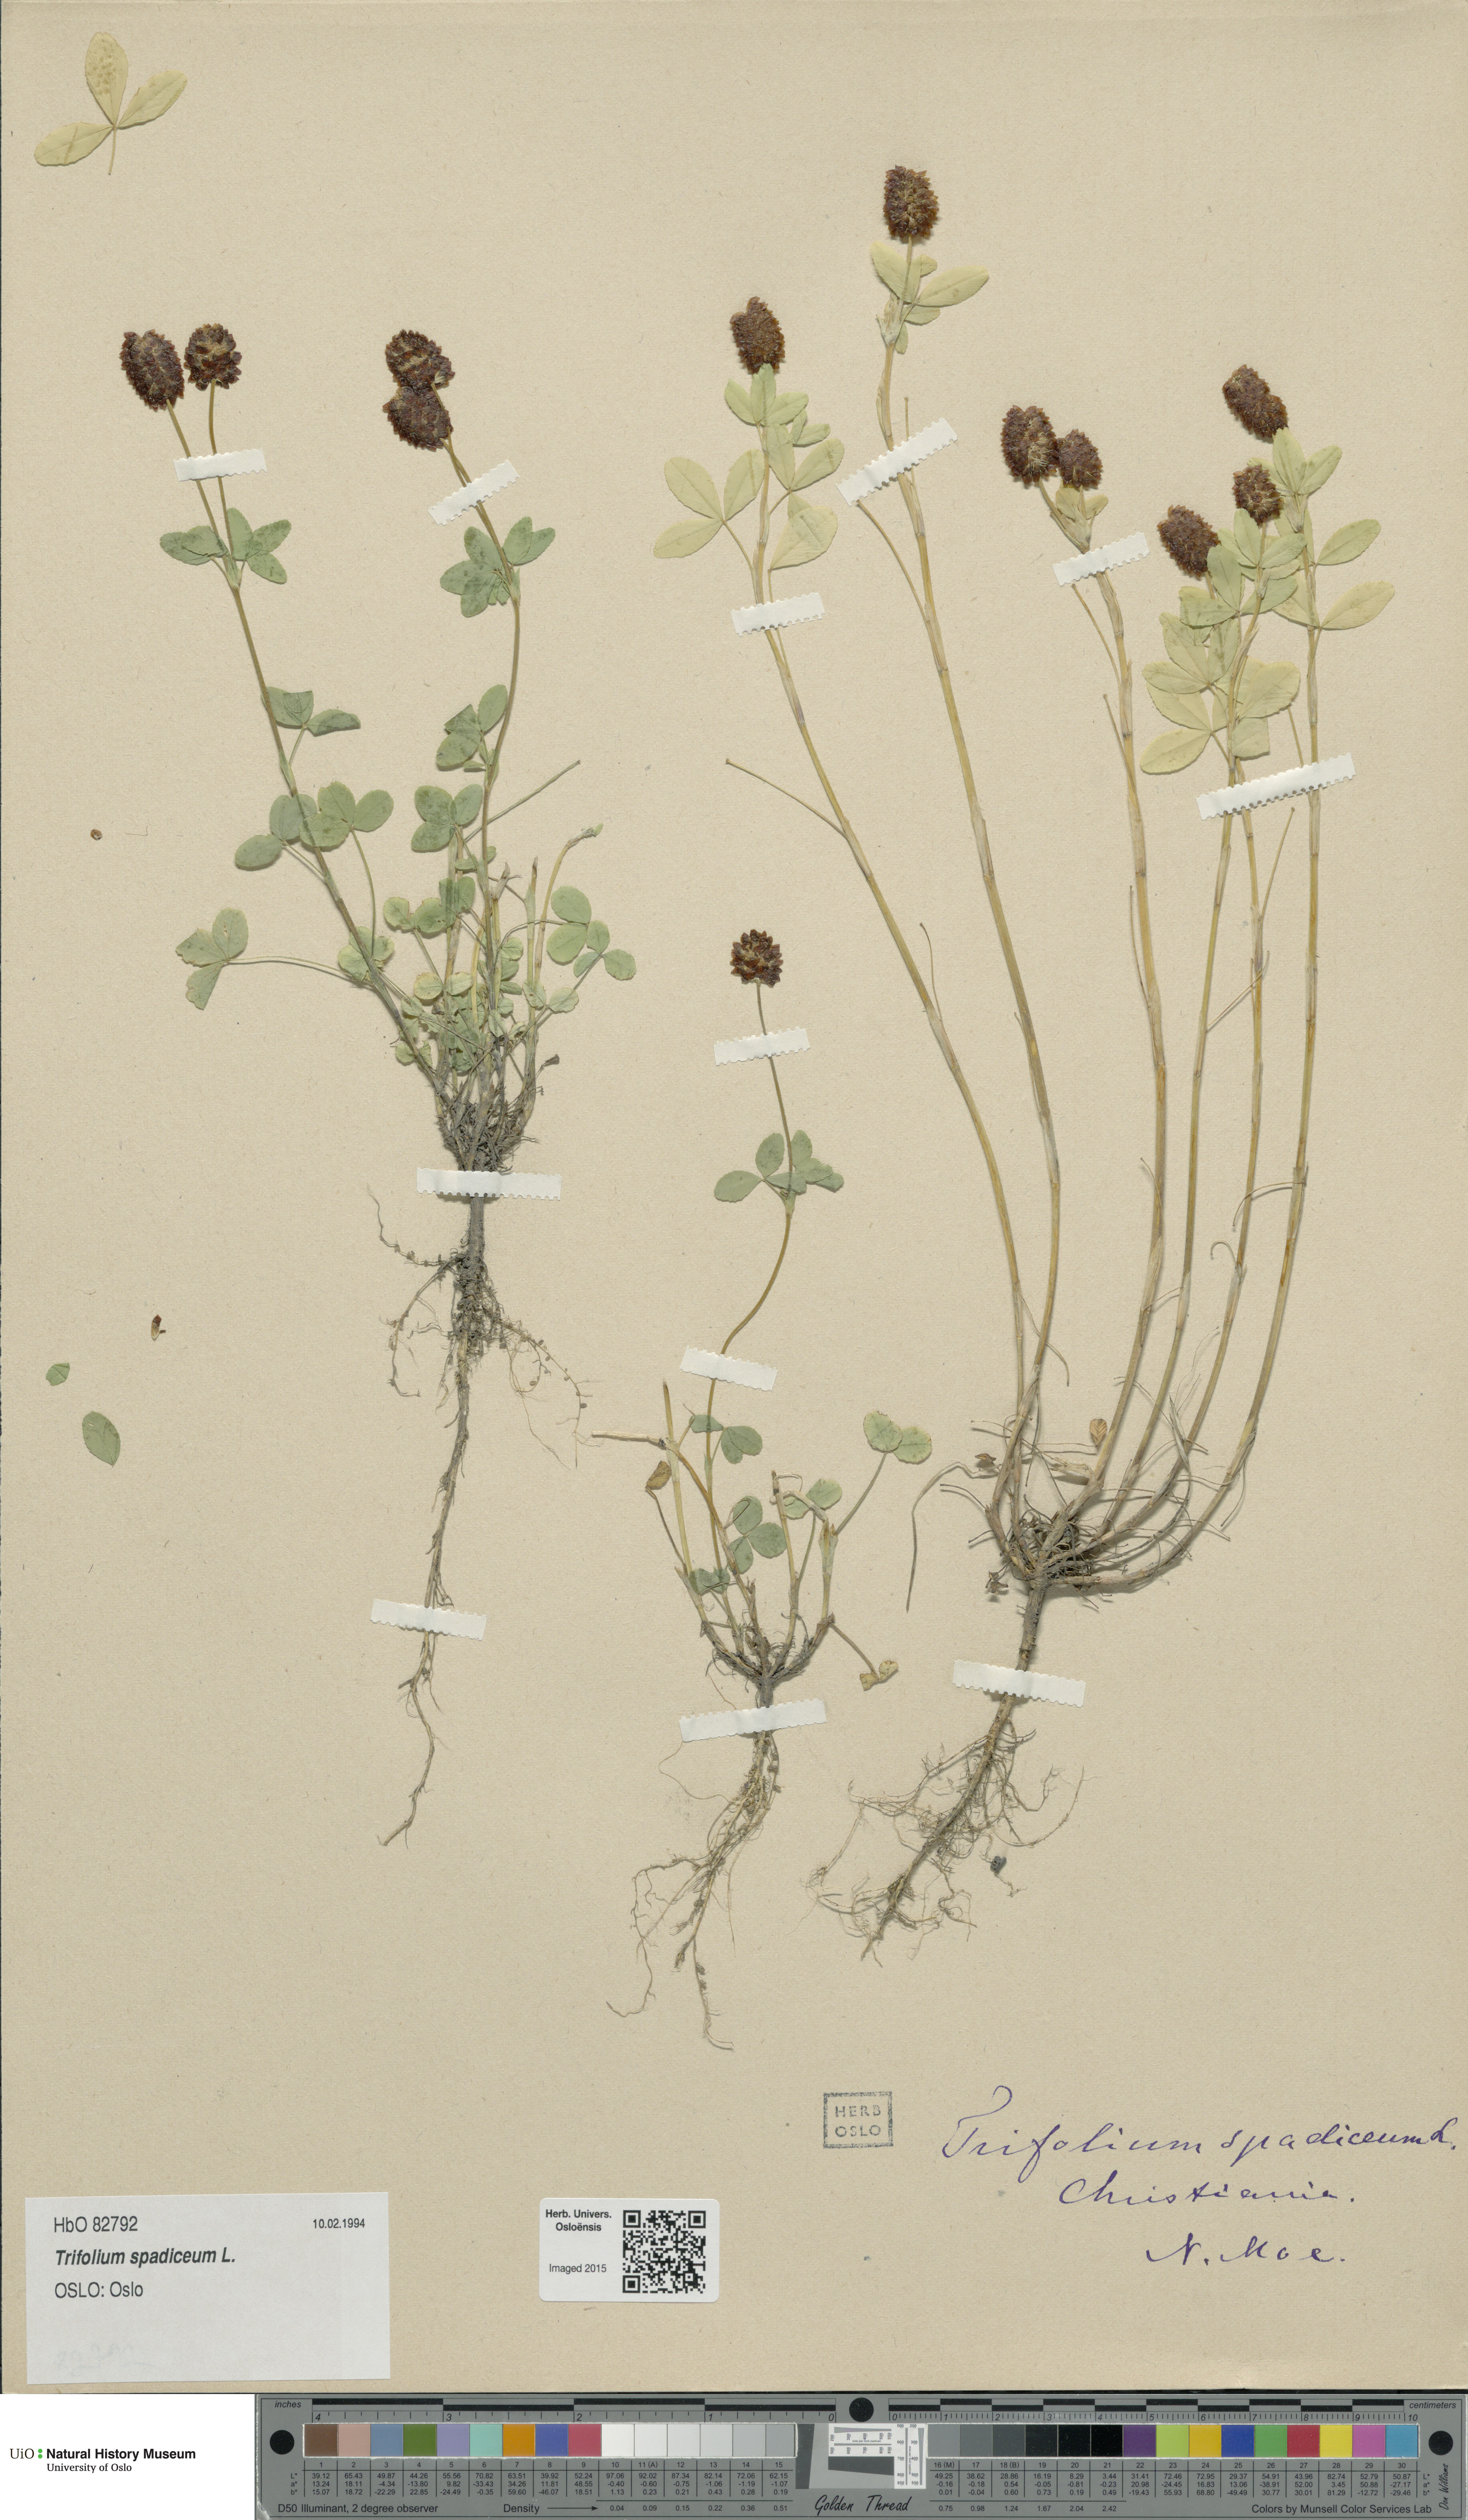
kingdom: Plantae
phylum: Tracheophyta
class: Magnoliopsida
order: Fabales
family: Fabaceae
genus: Trifolium
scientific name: Trifolium spadiceum
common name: Brown moor clover
